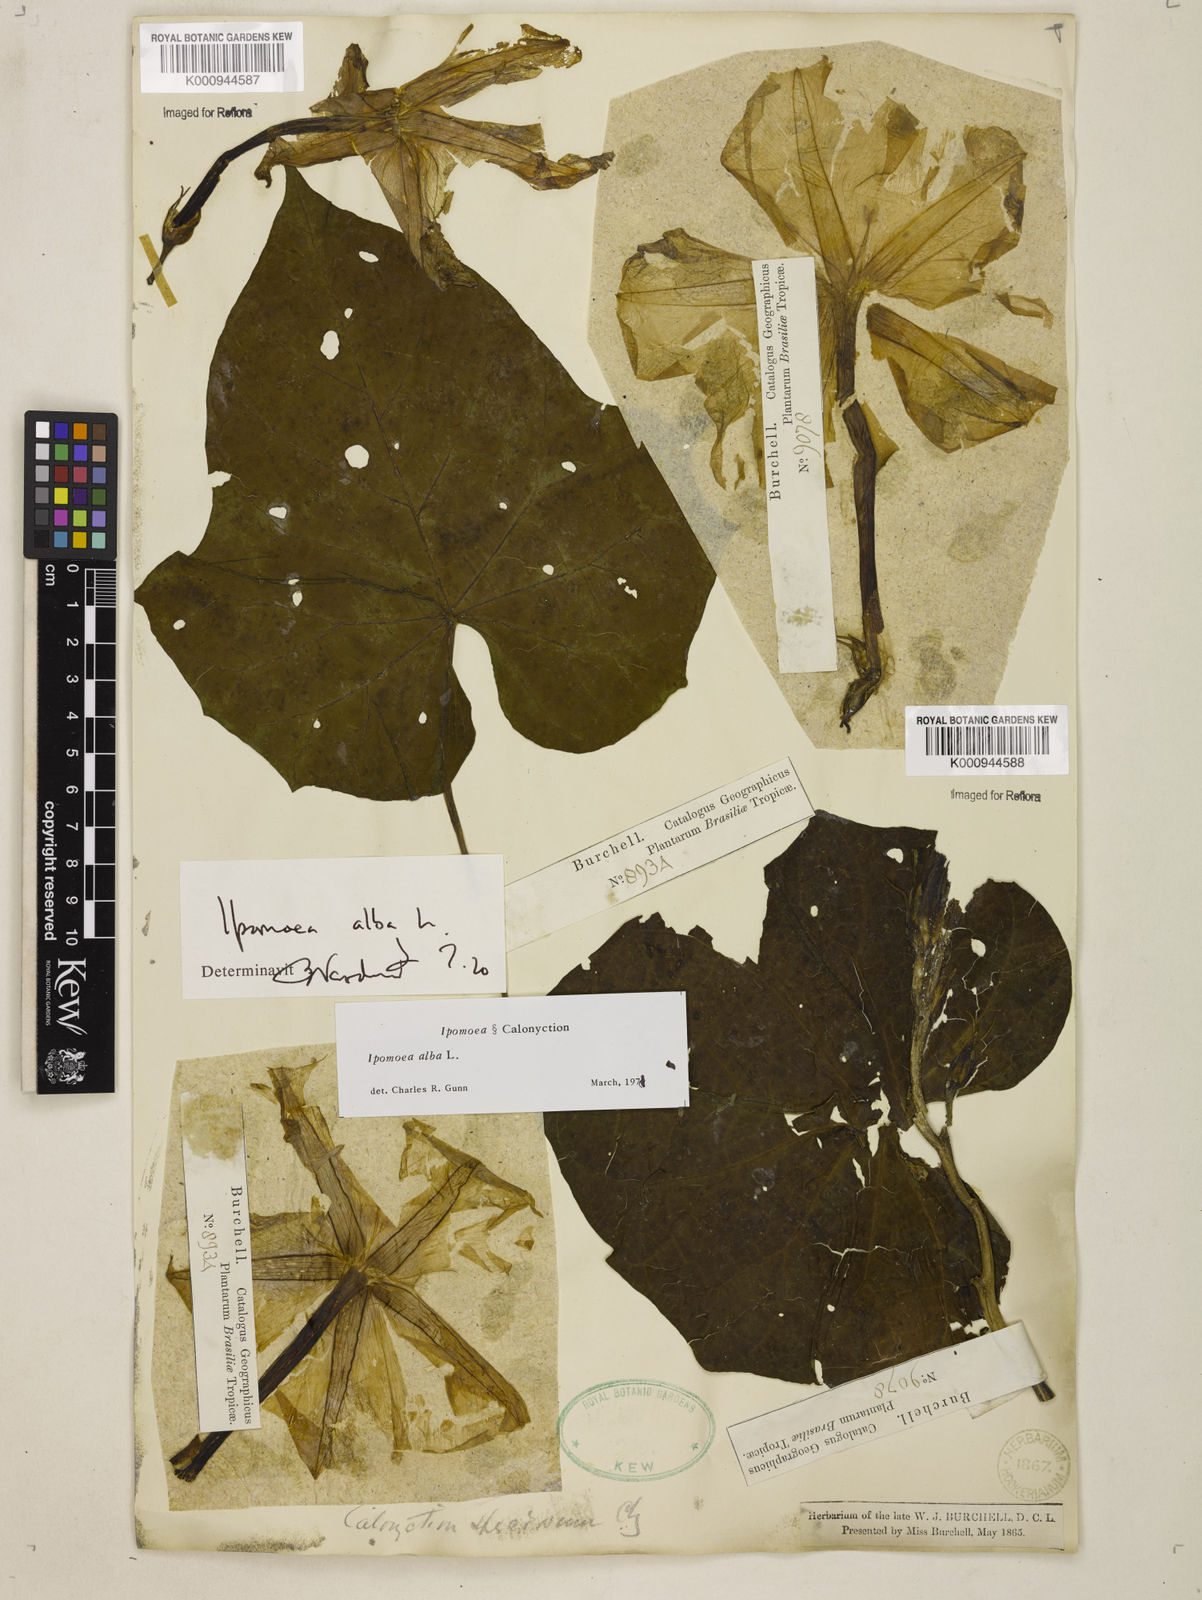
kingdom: Plantae
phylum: Tracheophyta
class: Magnoliopsida
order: Solanales
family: Convolvulaceae
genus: Ipomoea
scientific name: Ipomoea alba
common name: Moonflower
